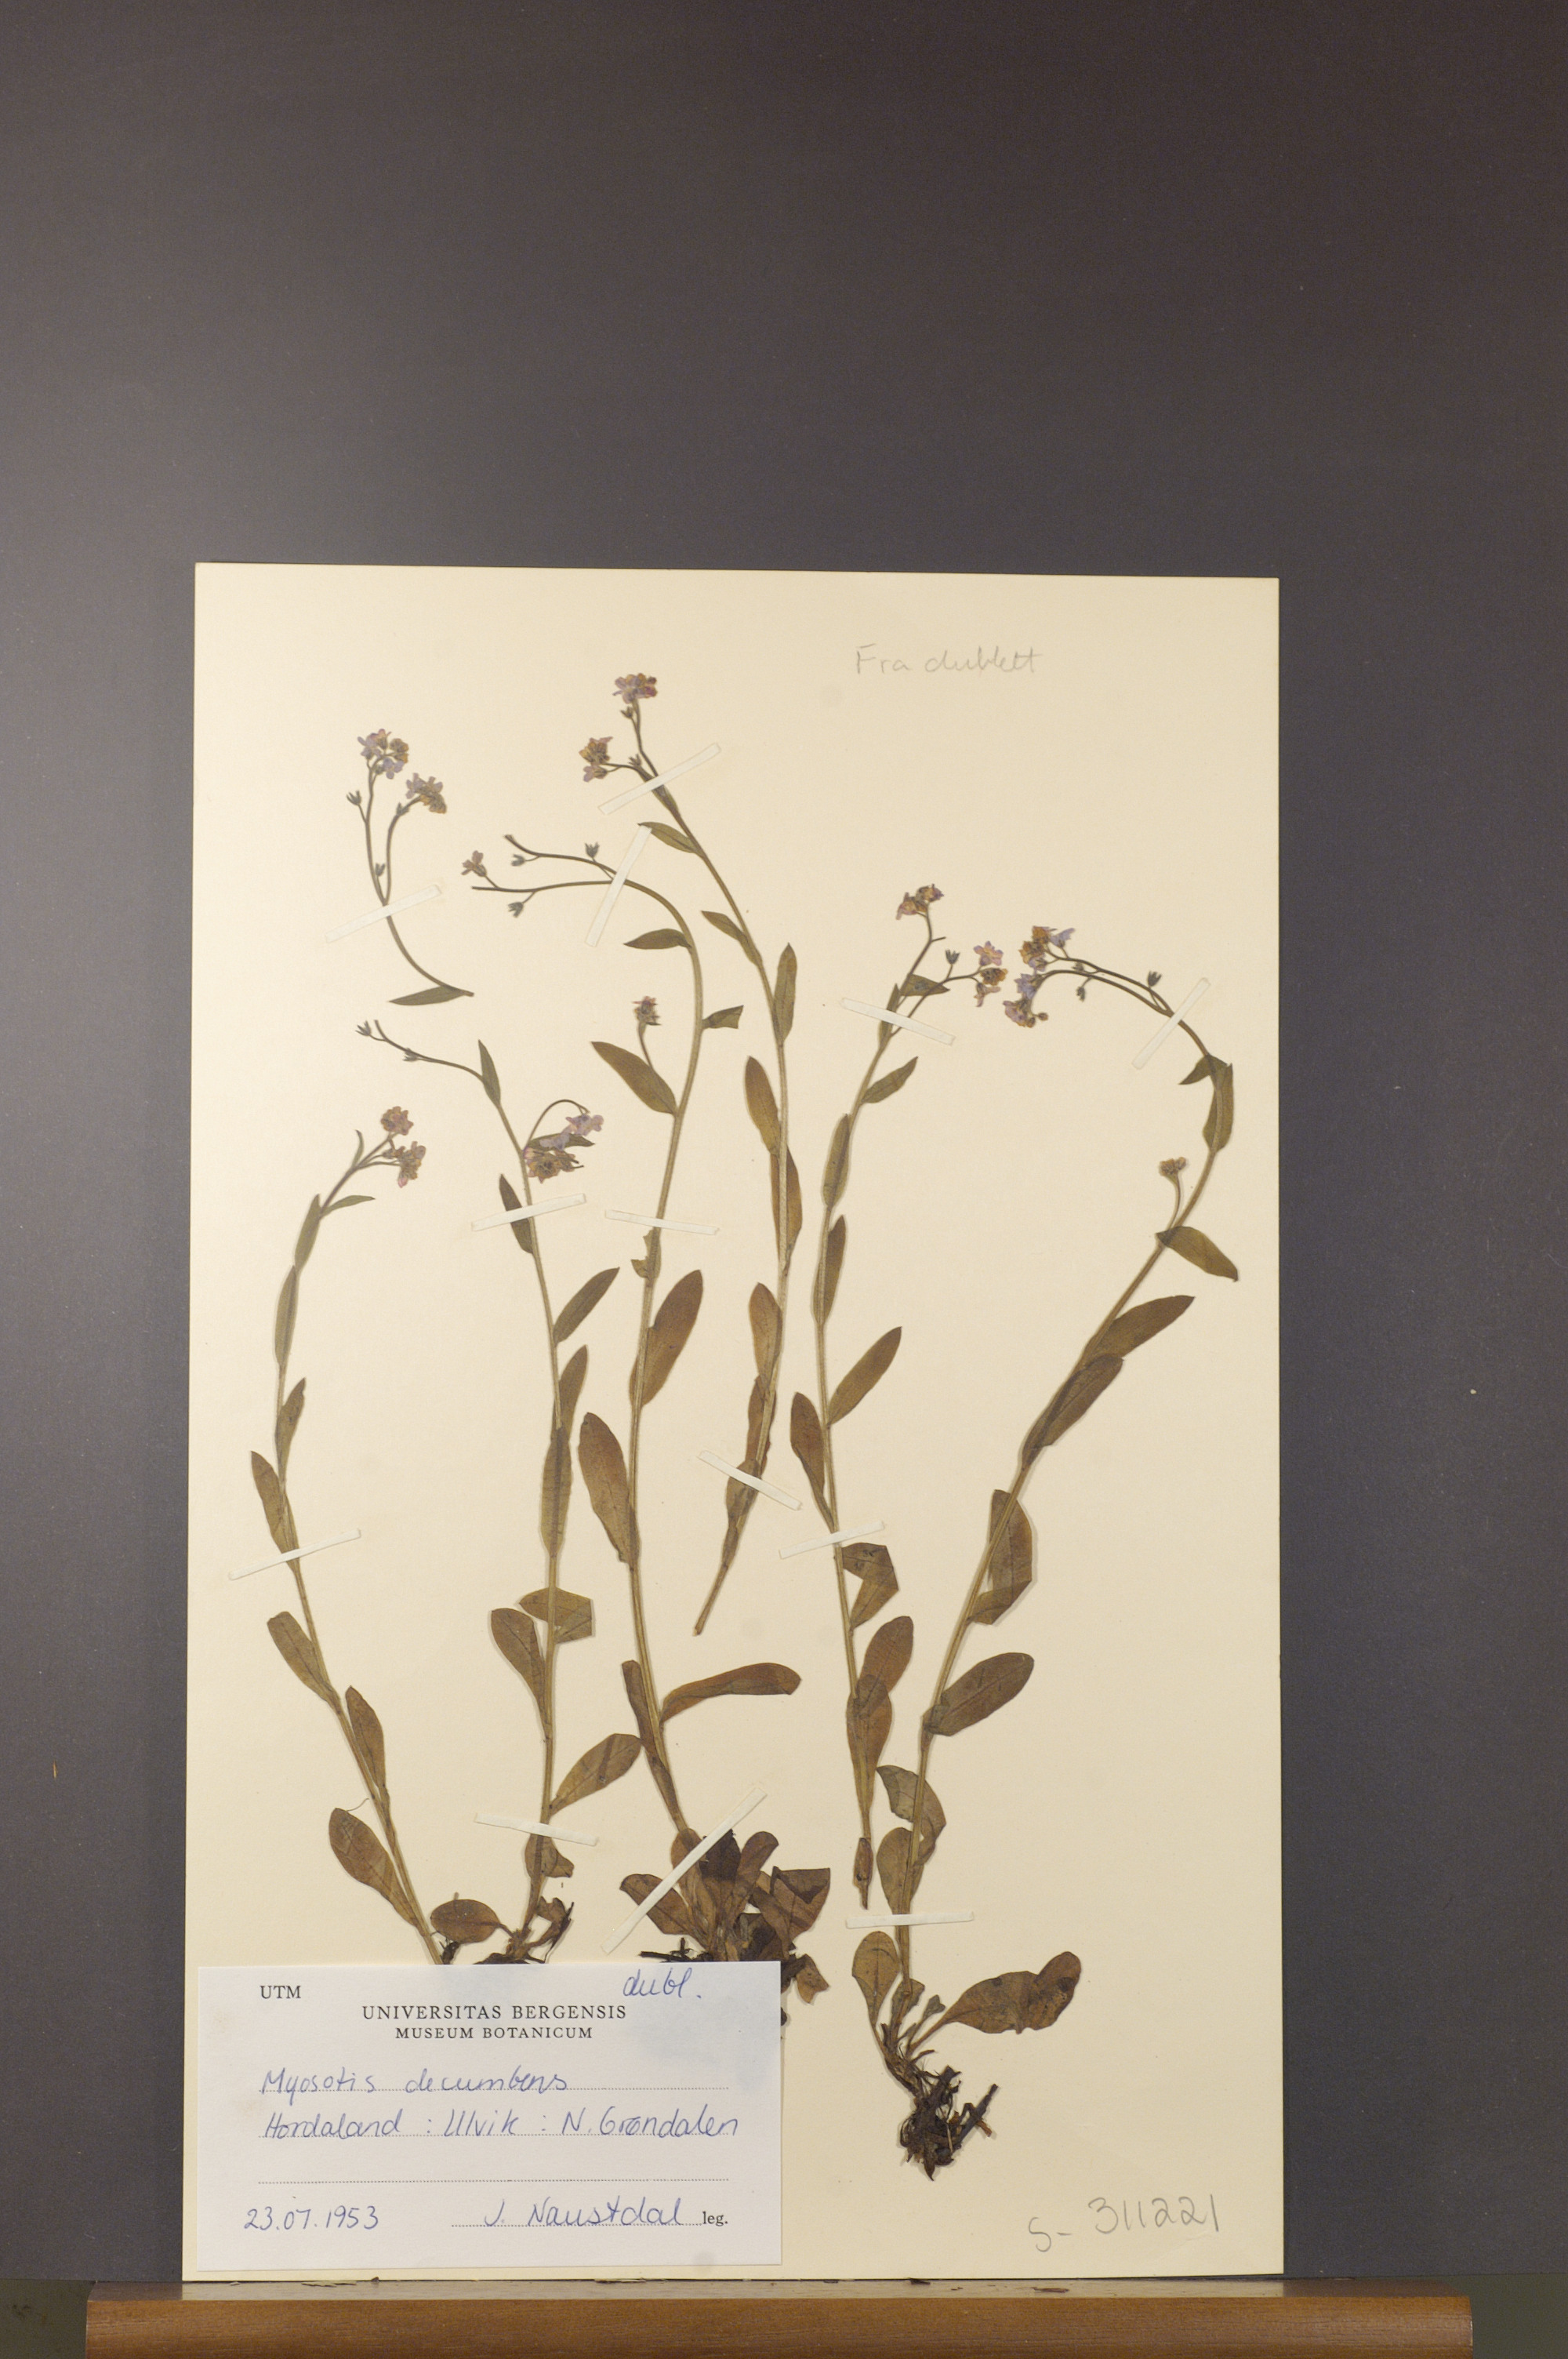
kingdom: Plantae
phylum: Tracheophyta
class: Magnoliopsida
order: Boraginales
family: Boraginaceae
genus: Myosotis
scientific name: Myosotis decumbens
